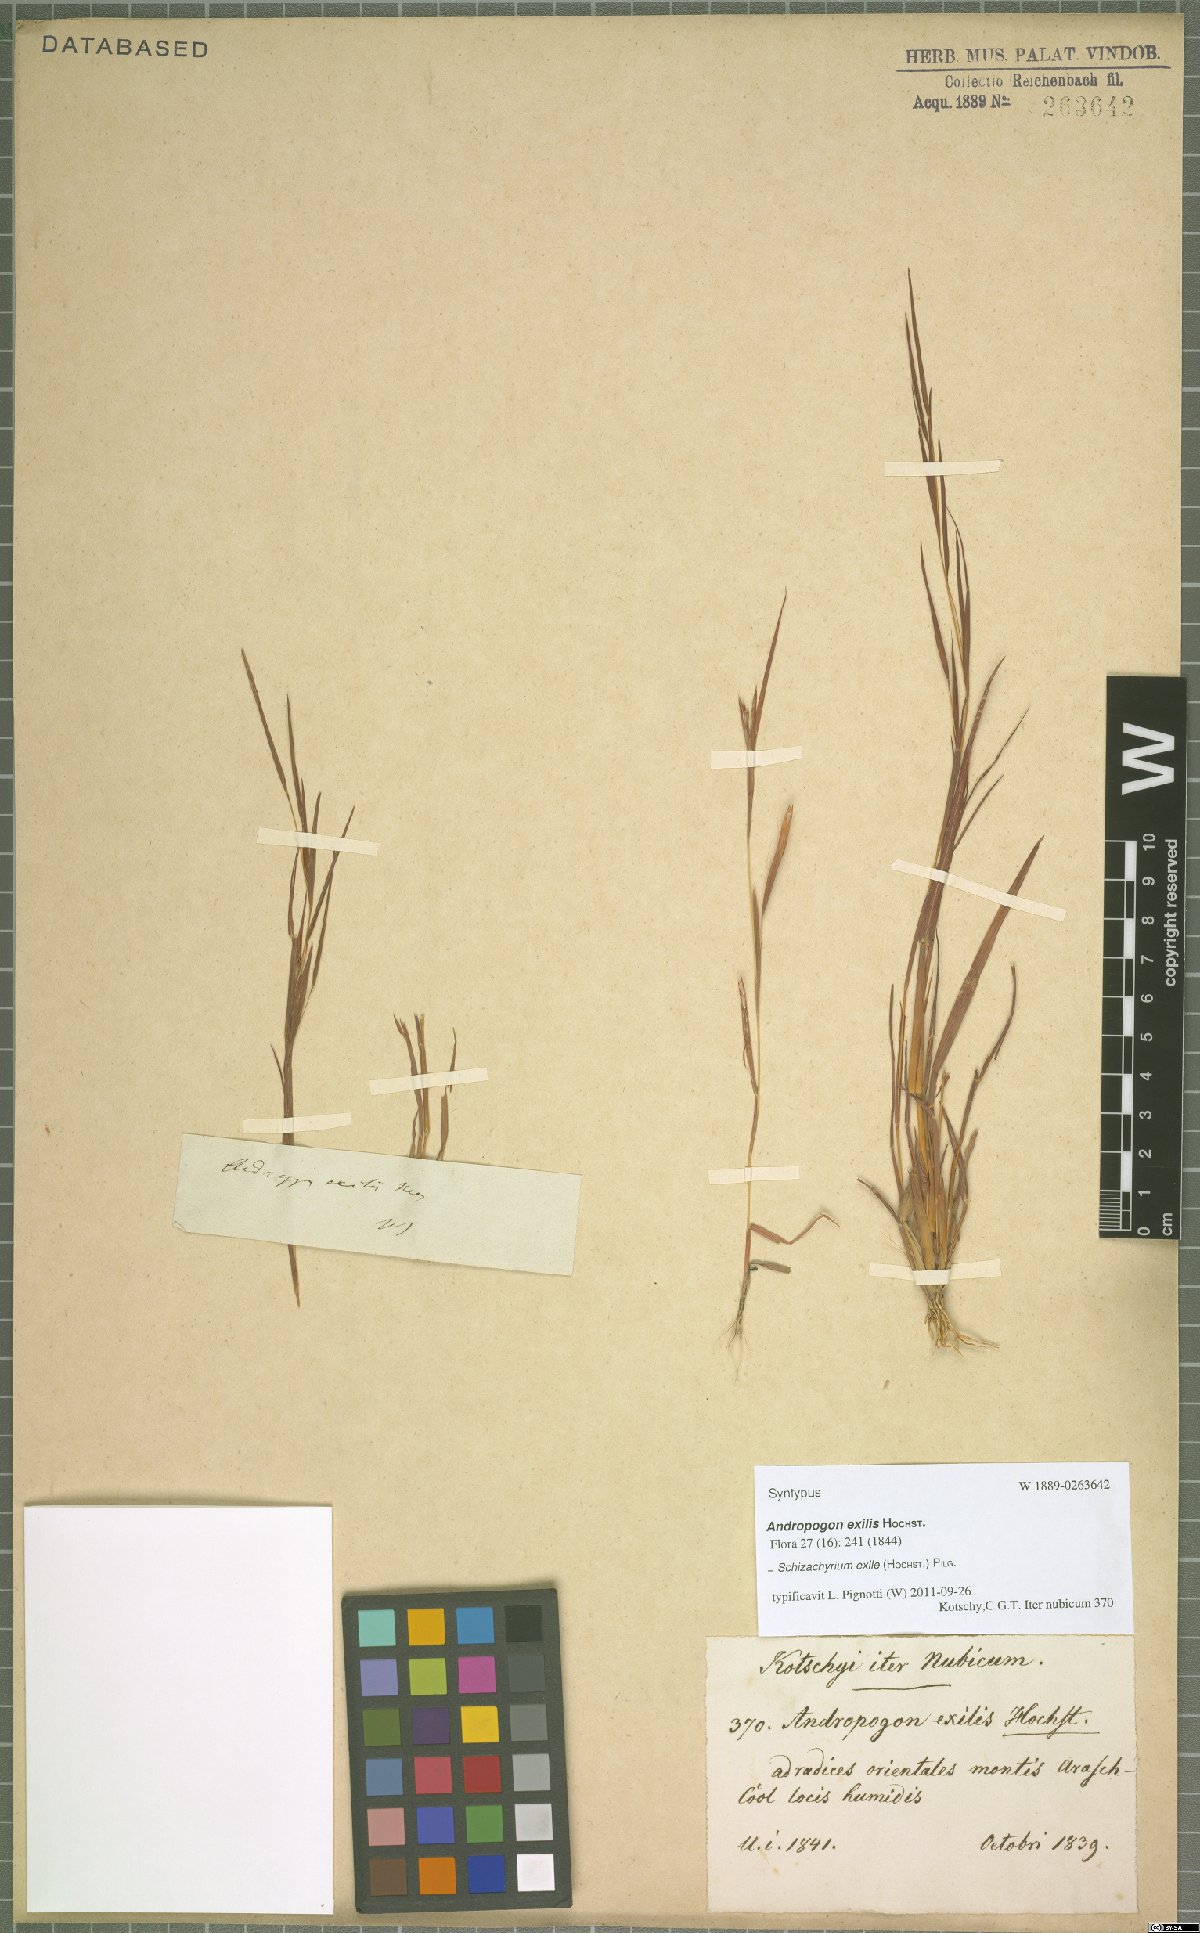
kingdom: Plantae
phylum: Tracheophyta
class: Liliopsida
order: Poales
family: Poaceae
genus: Schizachyrium
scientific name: Schizachyrium exile
